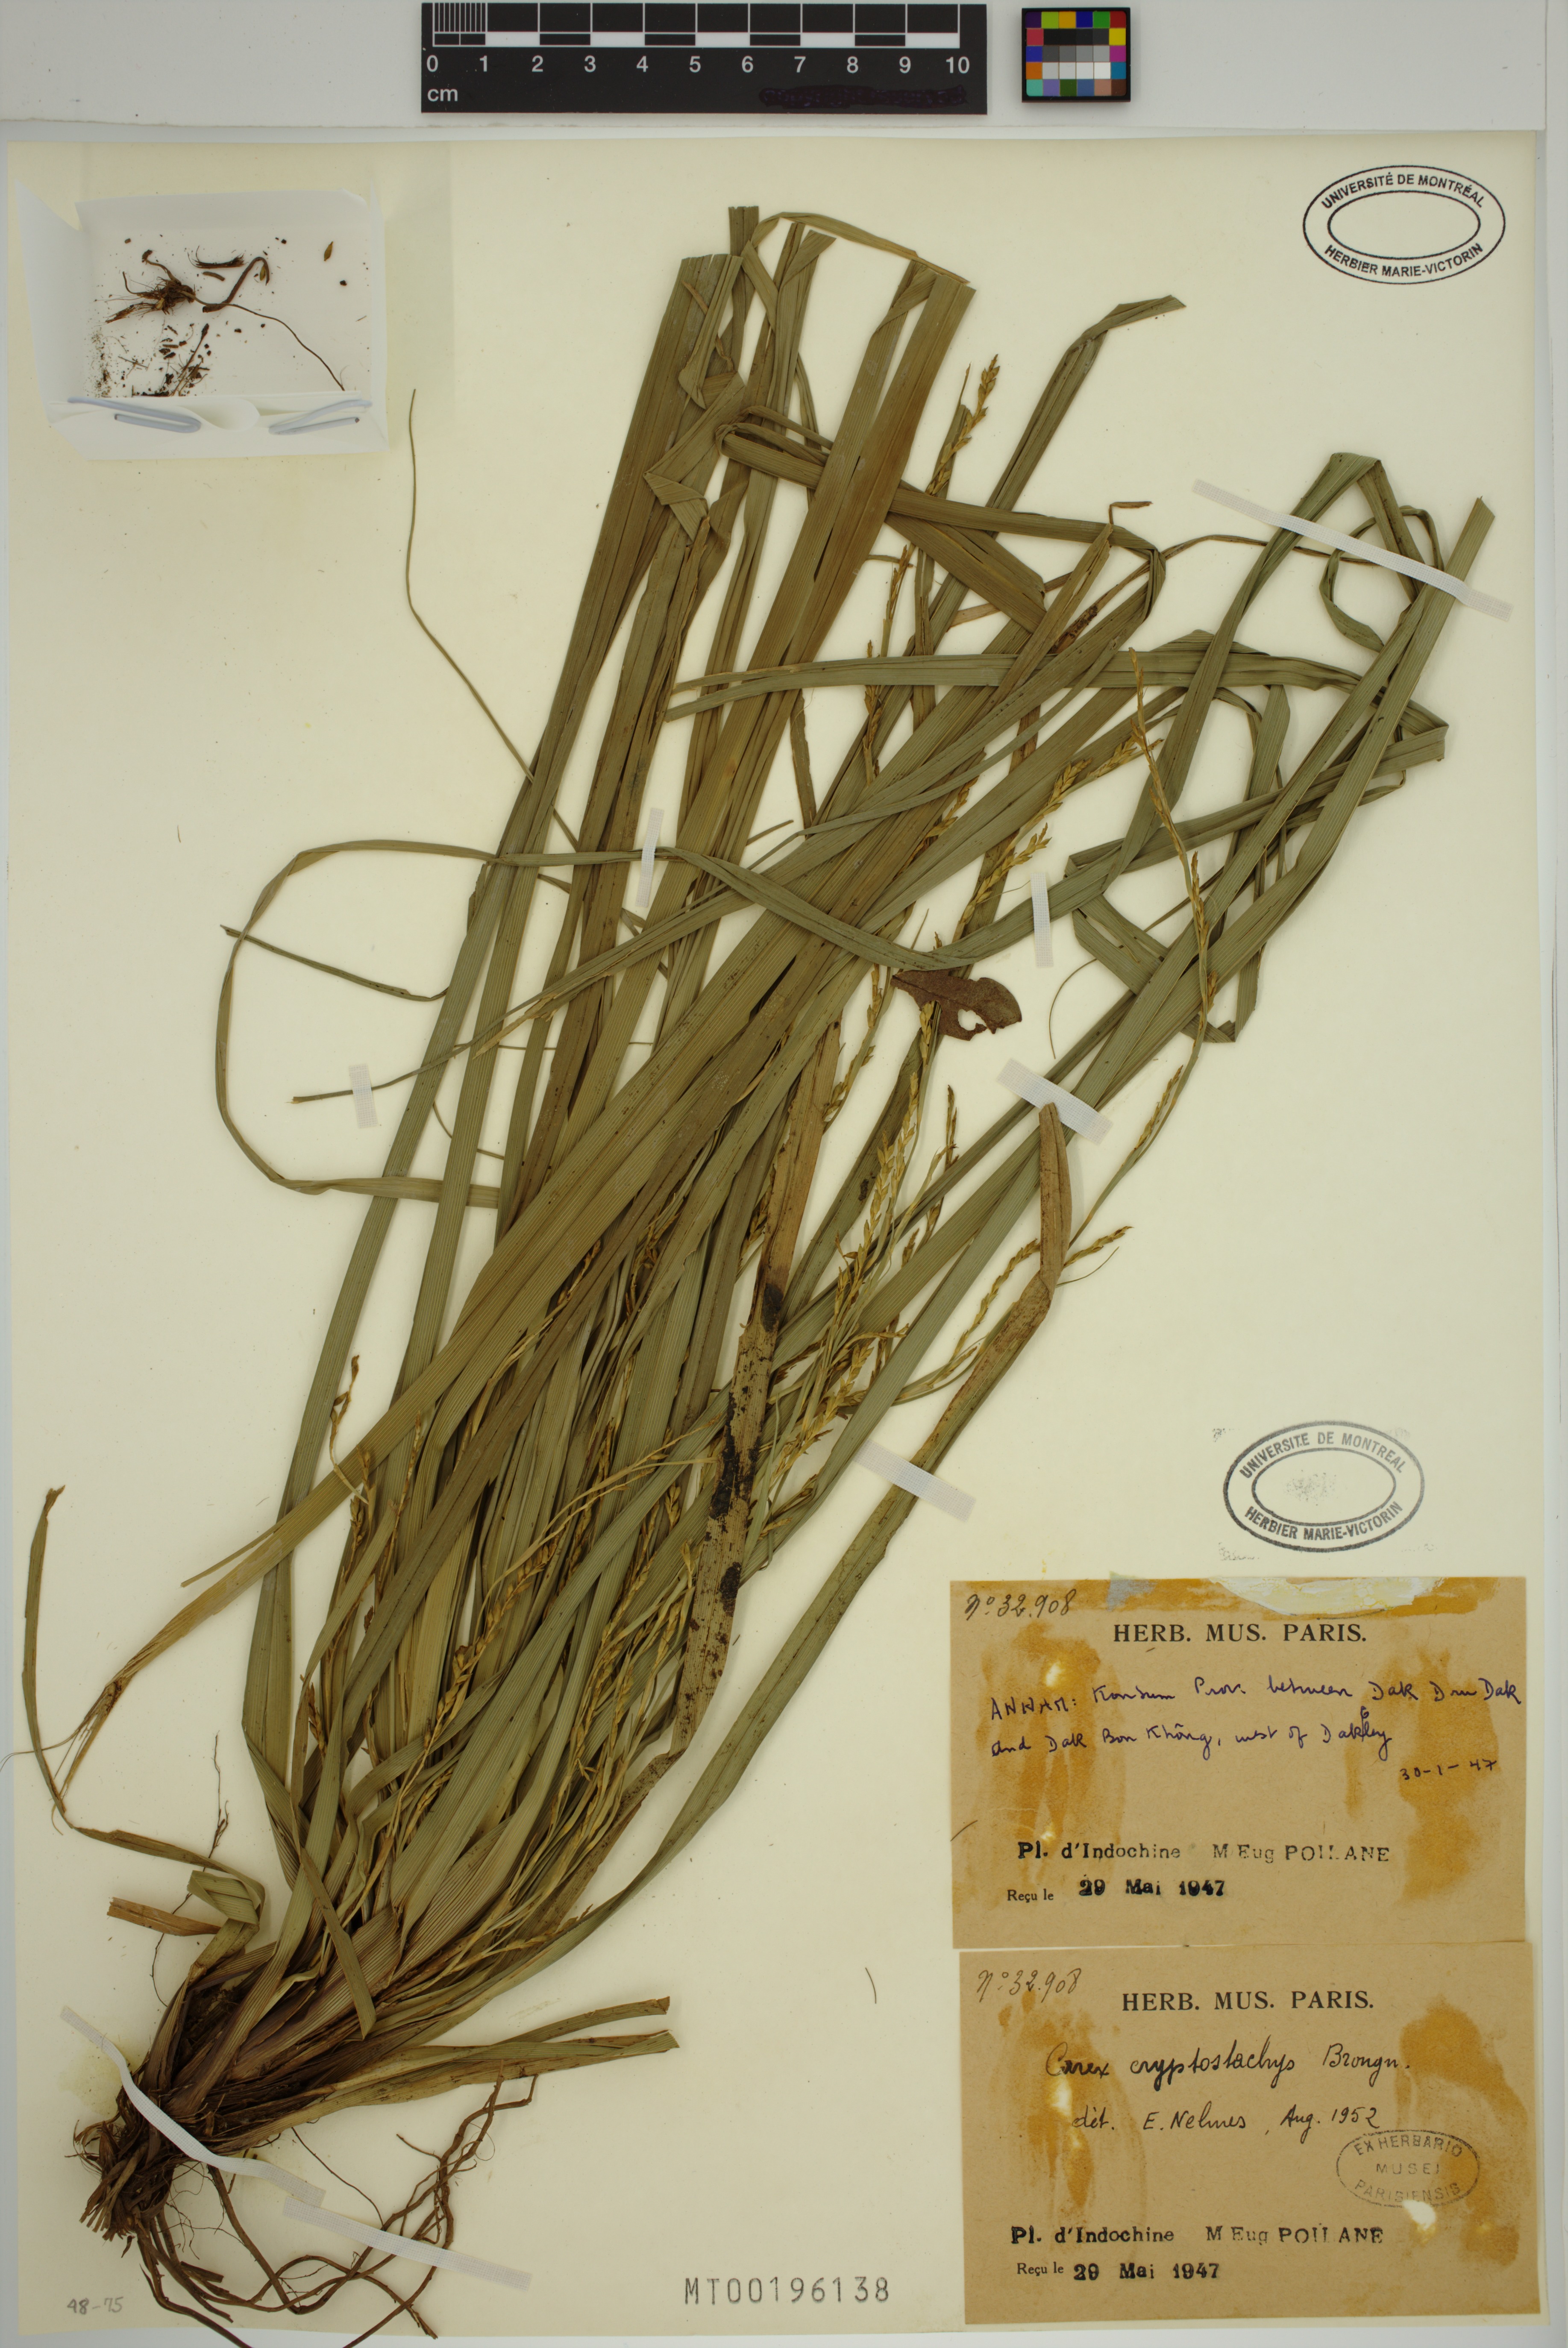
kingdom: Plantae
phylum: Tracheophyta
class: Liliopsida
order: Poales
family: Cyperaceae
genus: Carex
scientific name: Carex cryptostachys
